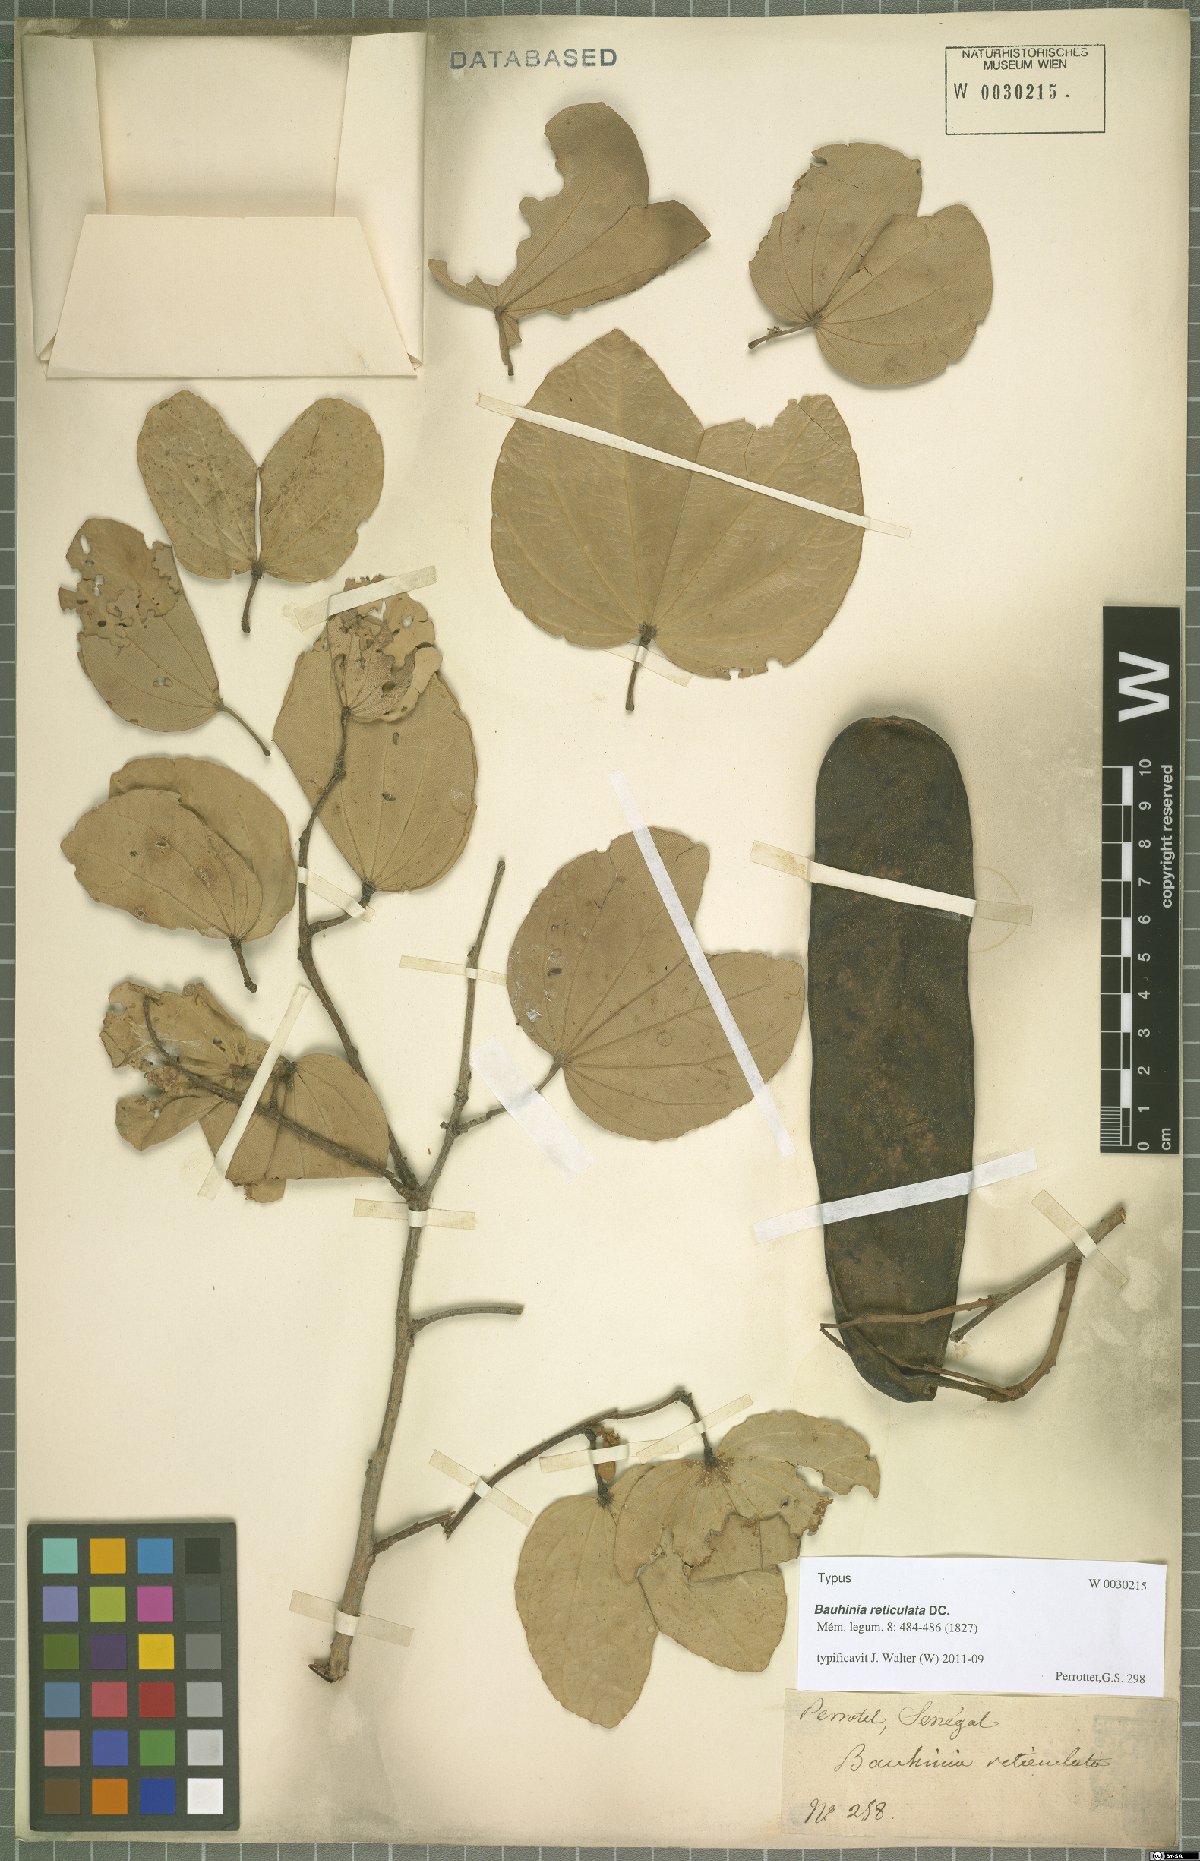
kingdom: Plantae
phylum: Tracheophyta
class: Magnoliopsida
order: Fabales
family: Fabaceae
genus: Piliostigma
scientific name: Piliostigma reticulatum
